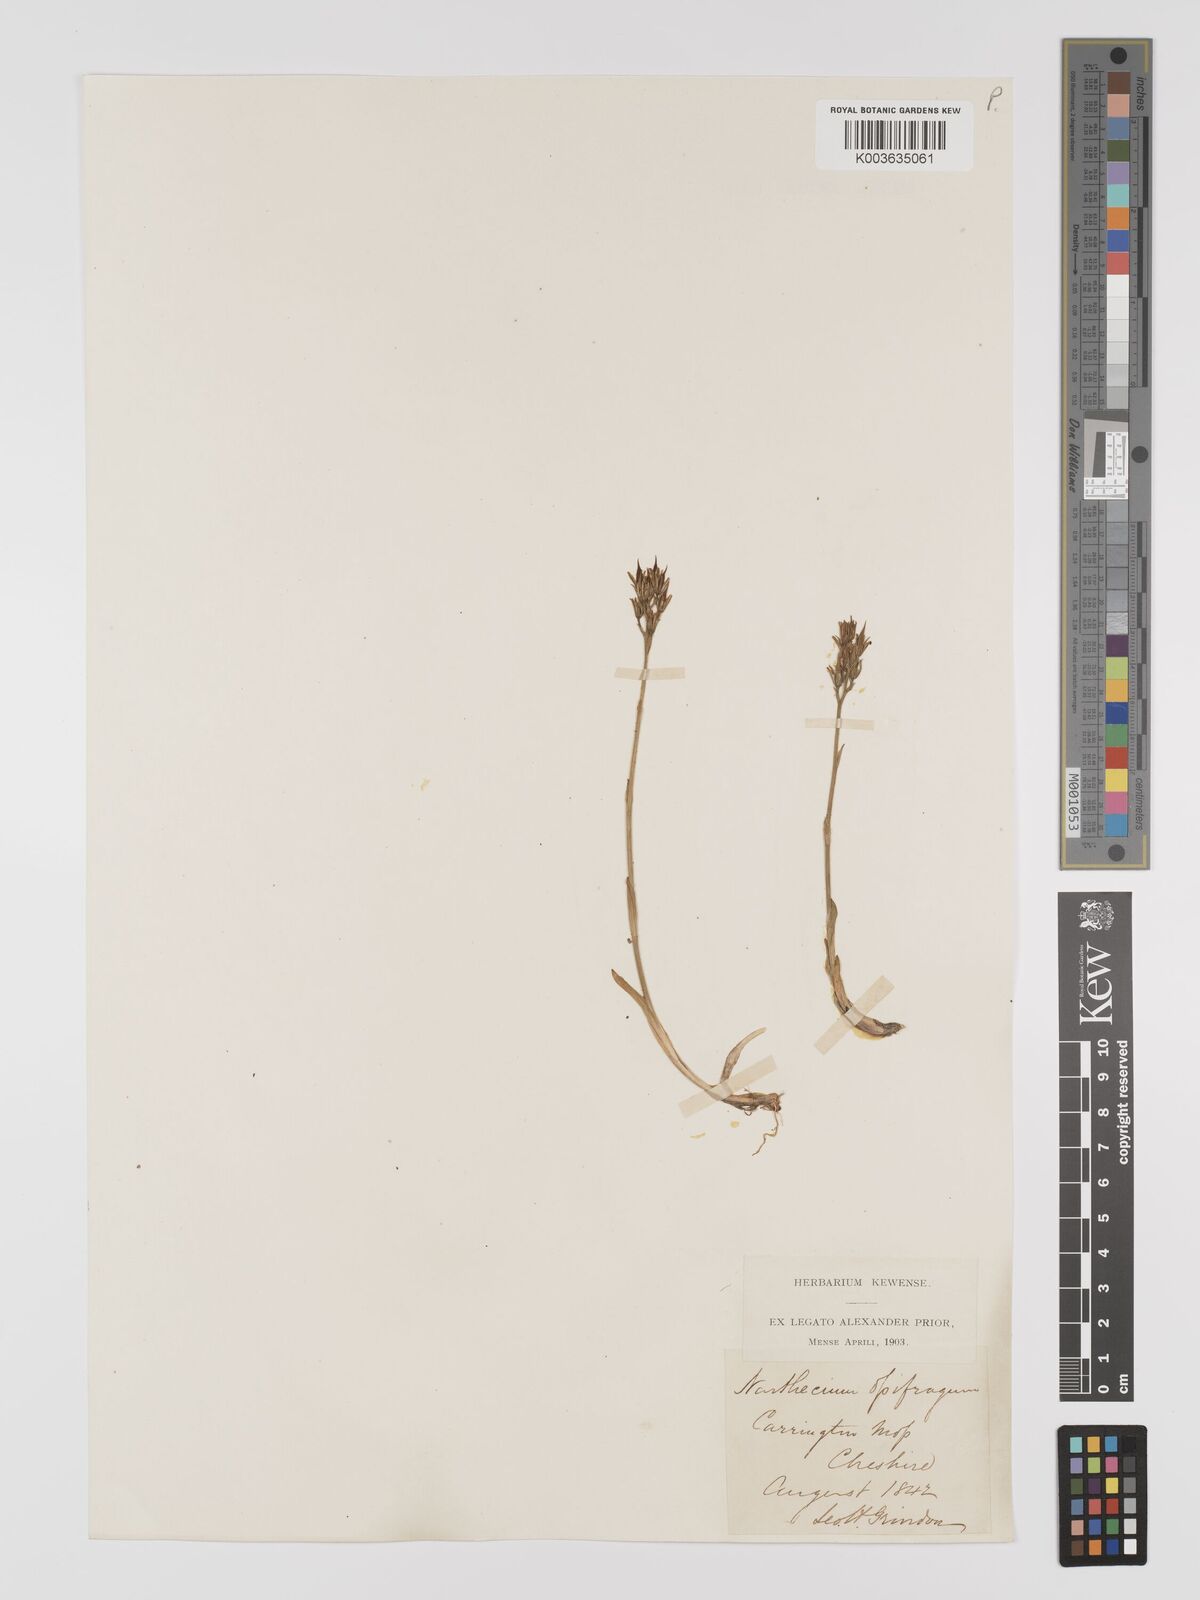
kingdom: Plantae
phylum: Tracheophyta
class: Liliopsida
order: Dioscoreales
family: Nartheciaceae
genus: Narthecium
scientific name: Narthecium
